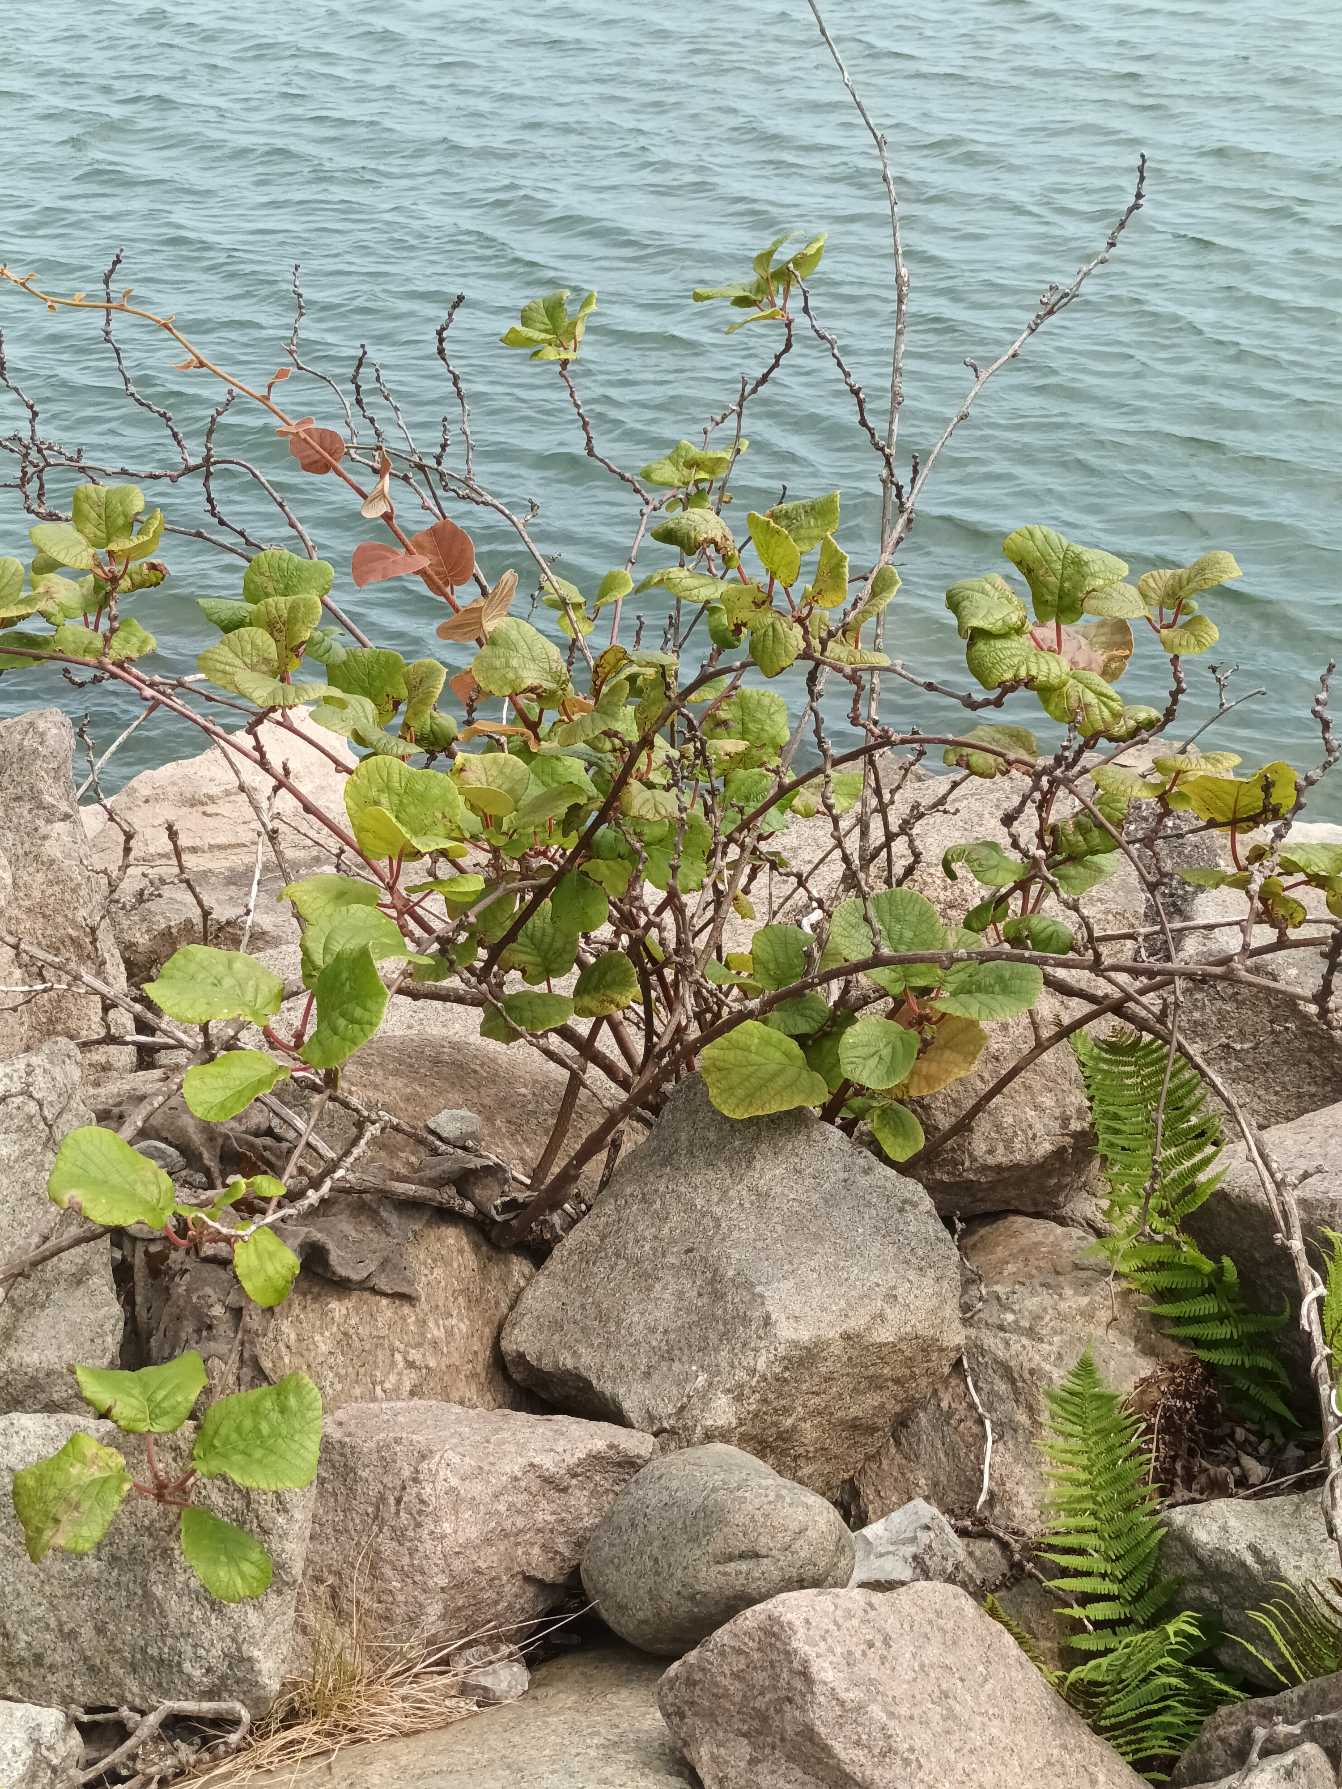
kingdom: Plantae
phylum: Tracheophyta
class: Magnoliopsida
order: Ericales
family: Actinidiaceae
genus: Actinidia
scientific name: Actinidia chinensis
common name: Kiwi
